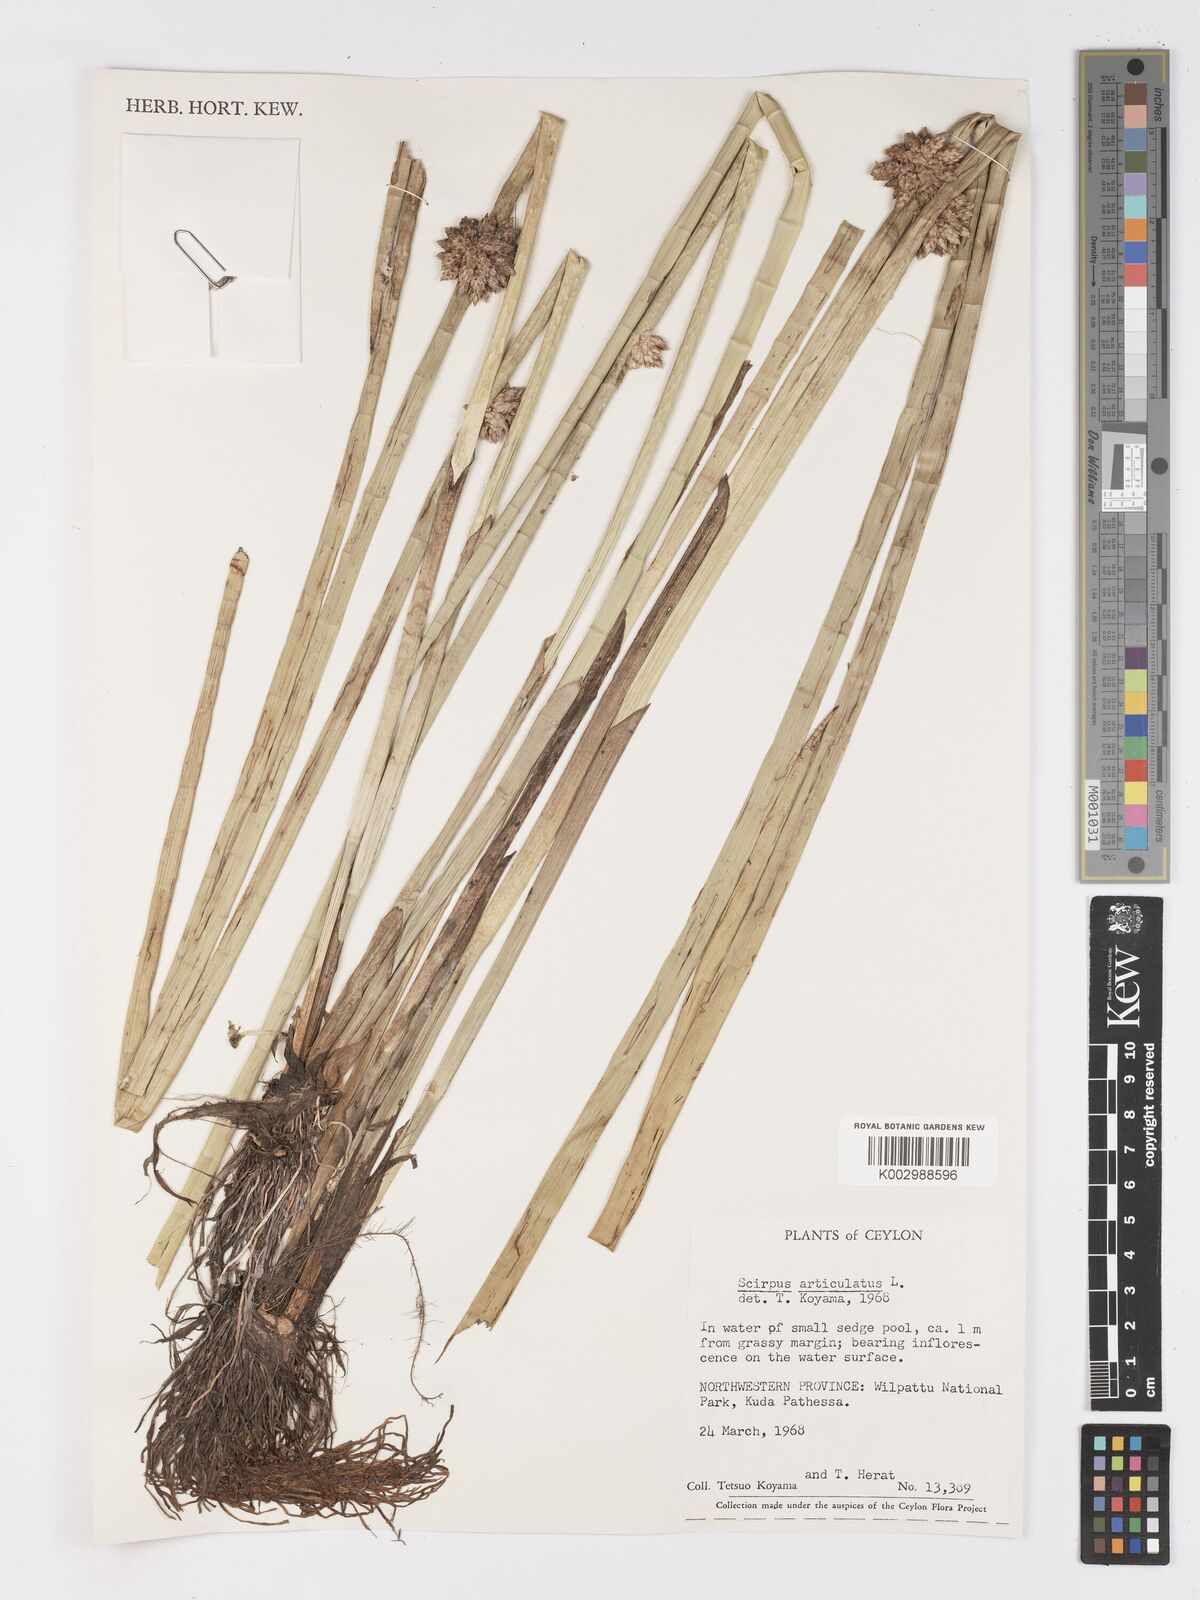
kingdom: Plantae
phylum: Tracheophyta
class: Liliopsida
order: Poales
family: Cyperaceae
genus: Schoenoplectiella
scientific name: Schoenoplectiella articulata
